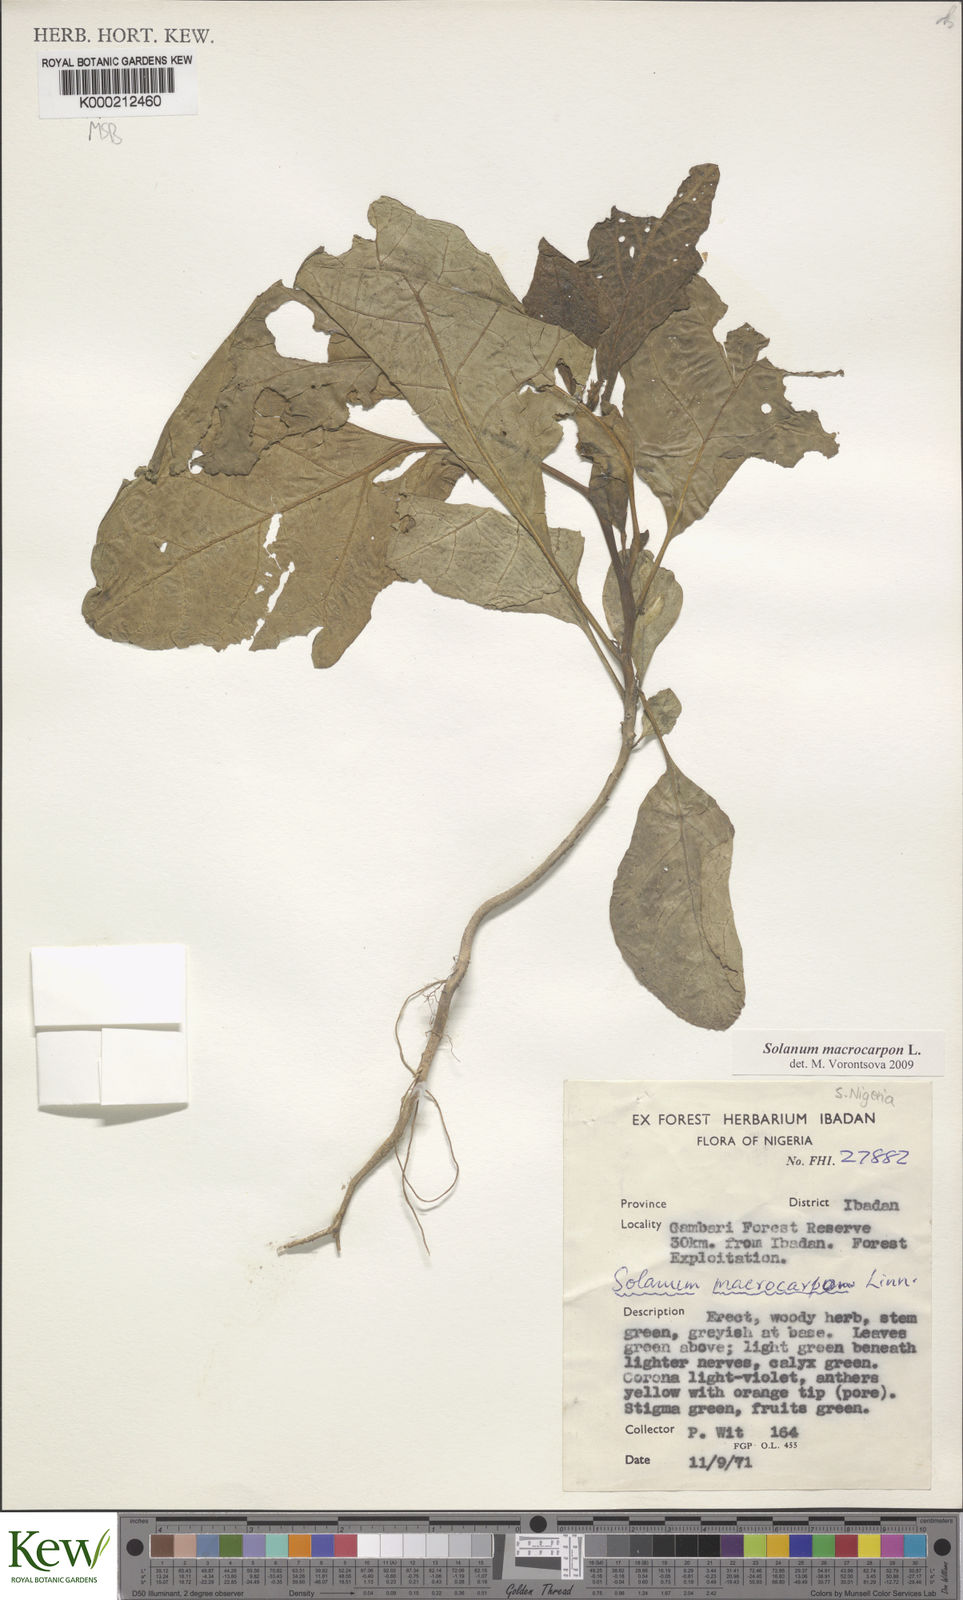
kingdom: Plantae
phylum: Tracheophyta
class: Magnoliopsida
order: Solanales
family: Solanaceae
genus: Solanum
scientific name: Solanum macrocarpon
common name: African eggplant
